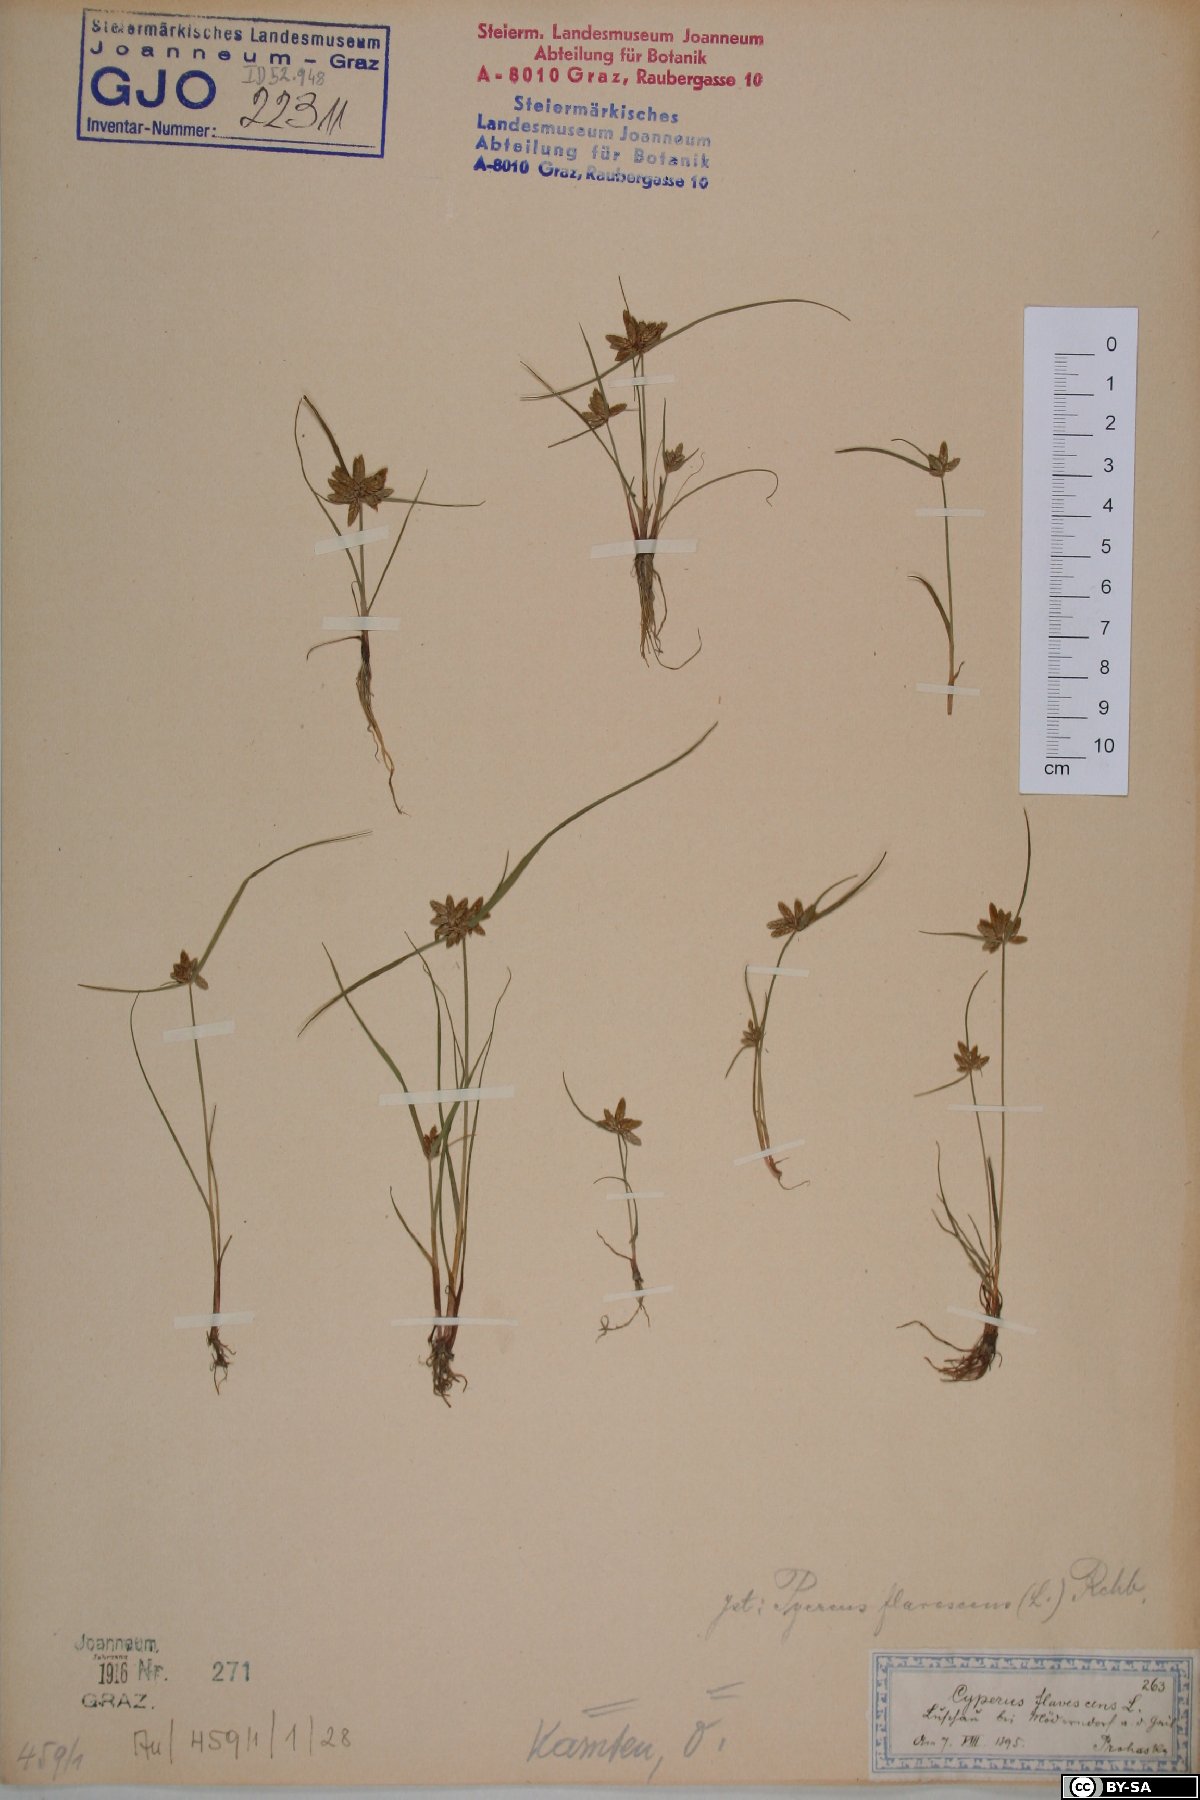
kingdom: Plantae
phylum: Tracheophyta
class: Liliopsida
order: Poales
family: Cyperaceae
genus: Cyperus
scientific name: Cyperus flavescens
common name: Yellow galingale
